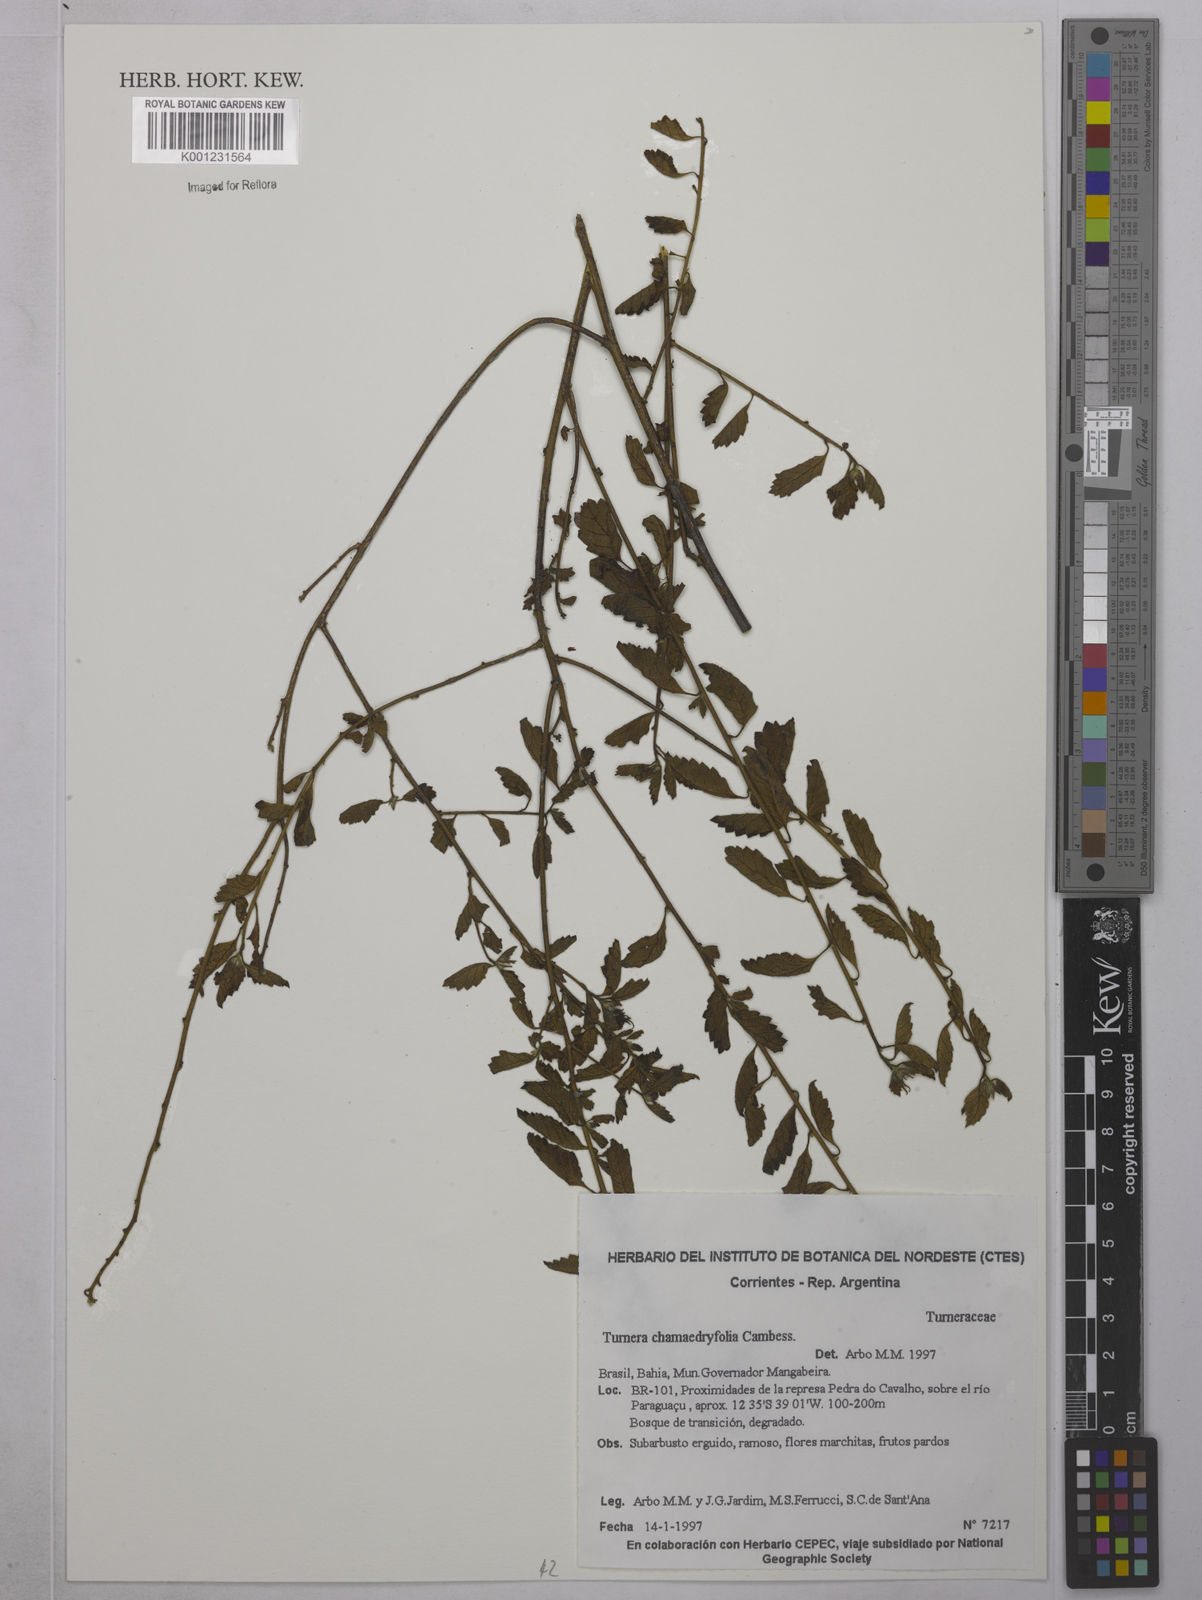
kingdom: Plantae
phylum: Tracheophyta
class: Magnoliopsida
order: Malpighiales
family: Turneraceae
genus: Turnera
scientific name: Turnera chamaedrifolia
